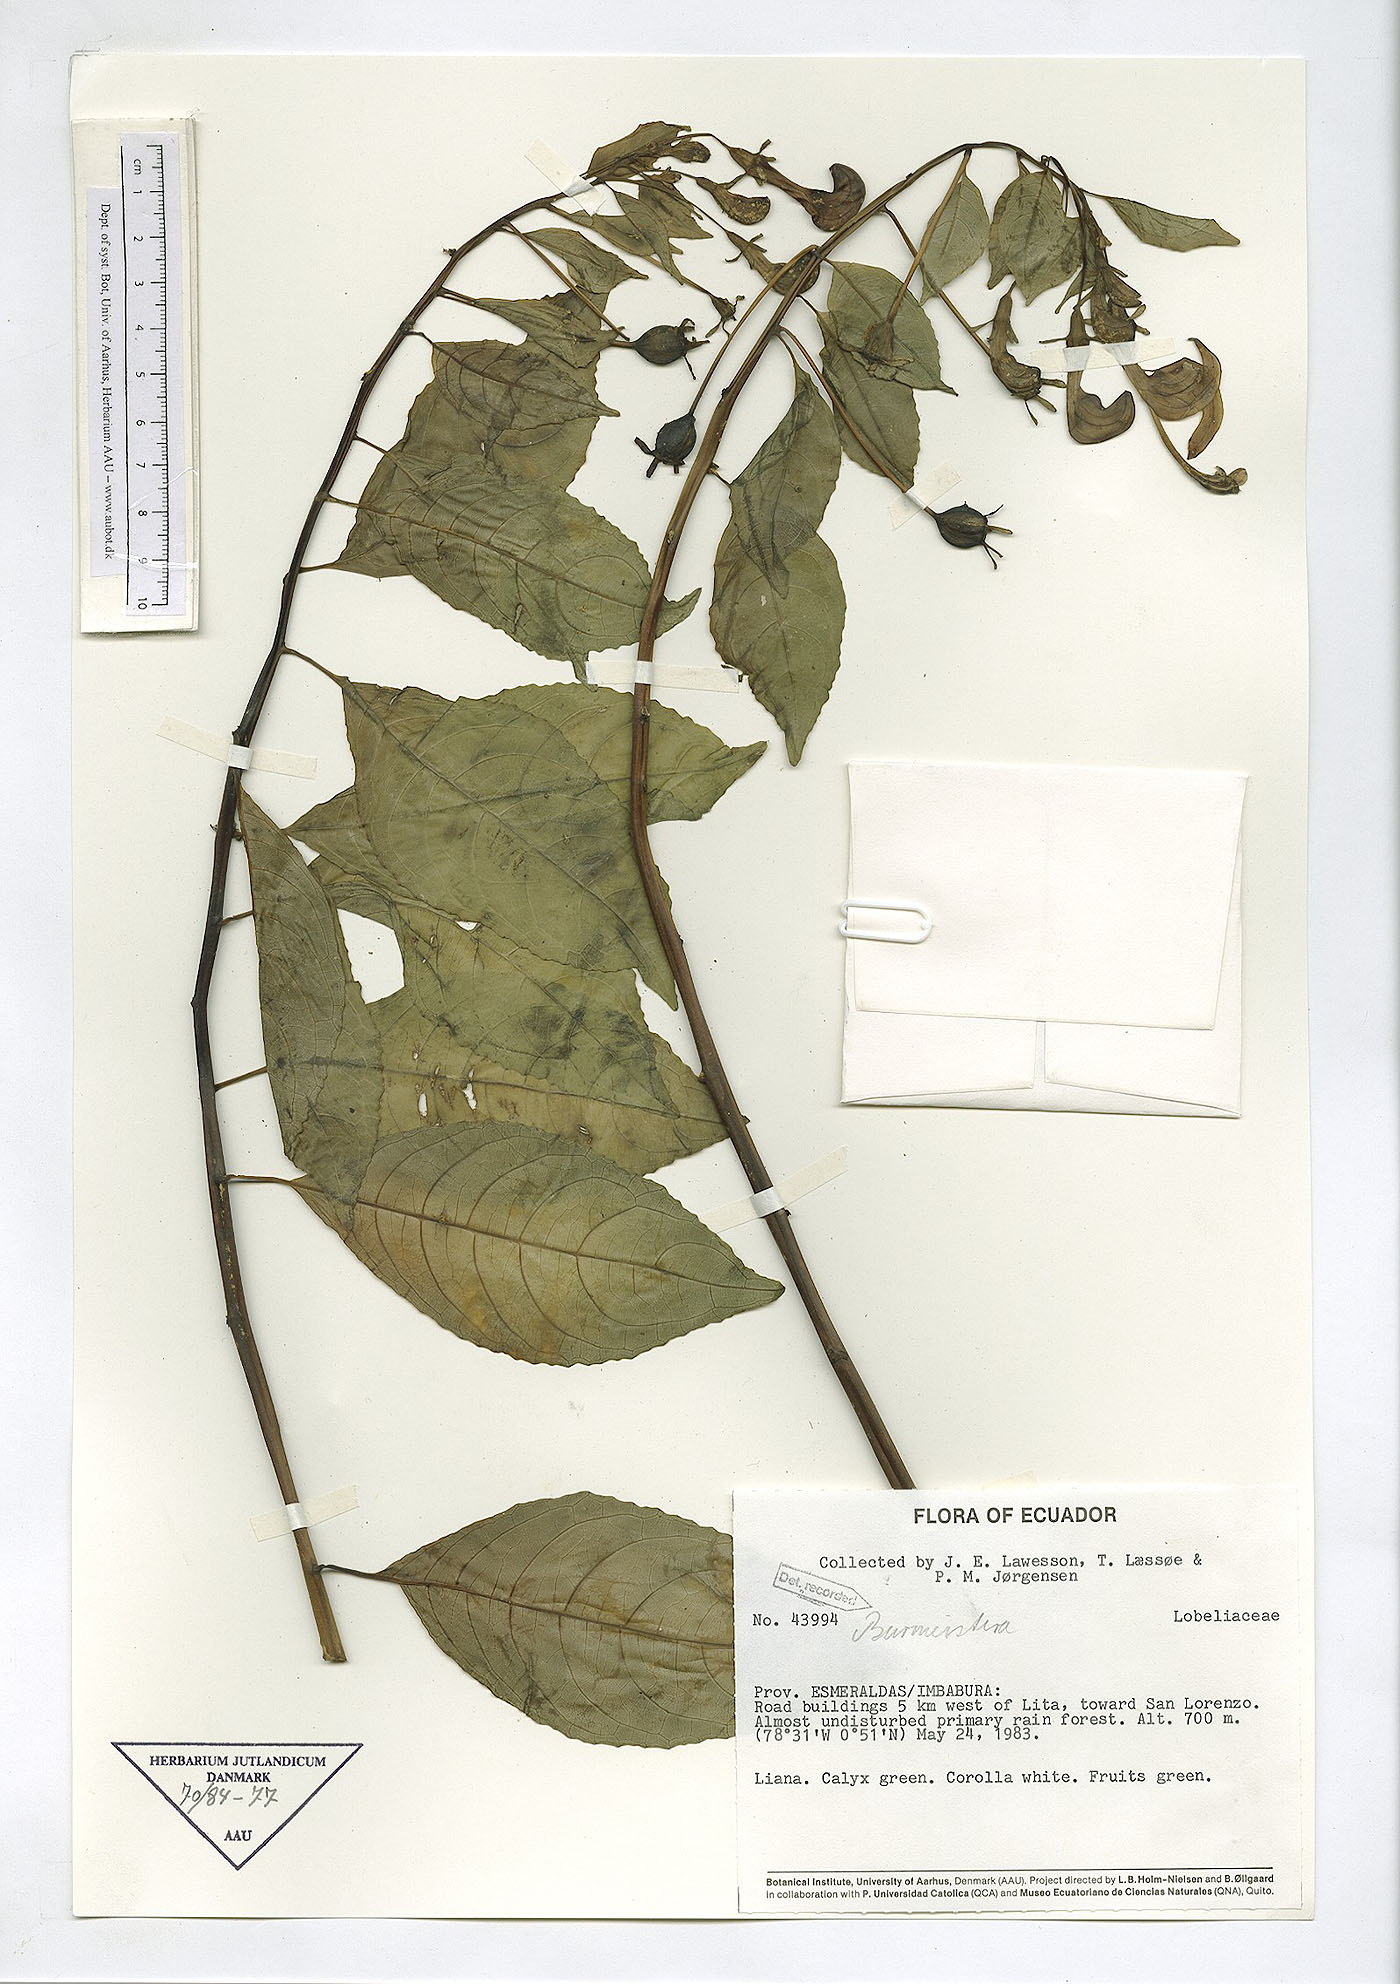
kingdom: Plantae
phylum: Tracheophyta
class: Magnoliopsida
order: Asterales
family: Campanulaceae
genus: Burmeistera
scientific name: Burmeistera
